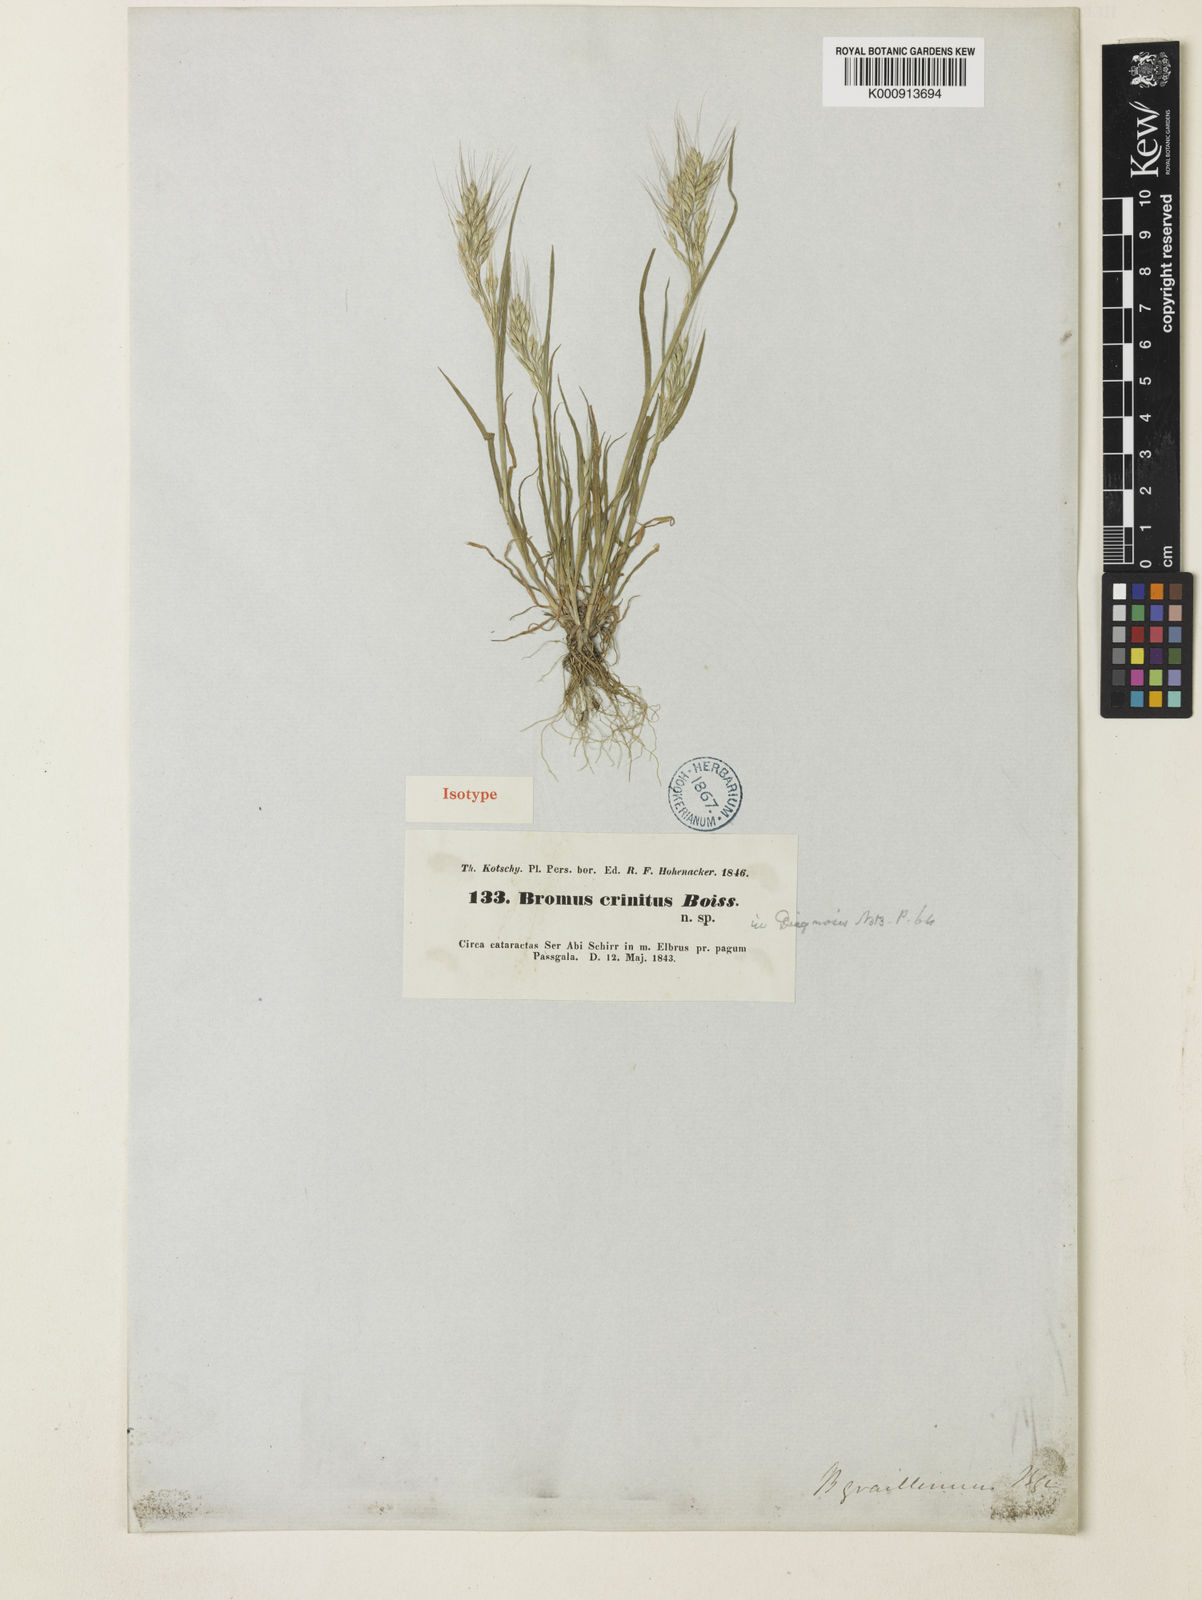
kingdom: Plantae
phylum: Tracheophyta
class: Liliopsida
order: Poales
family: Poaceae
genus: Bromus
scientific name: Bromus gracillimus
